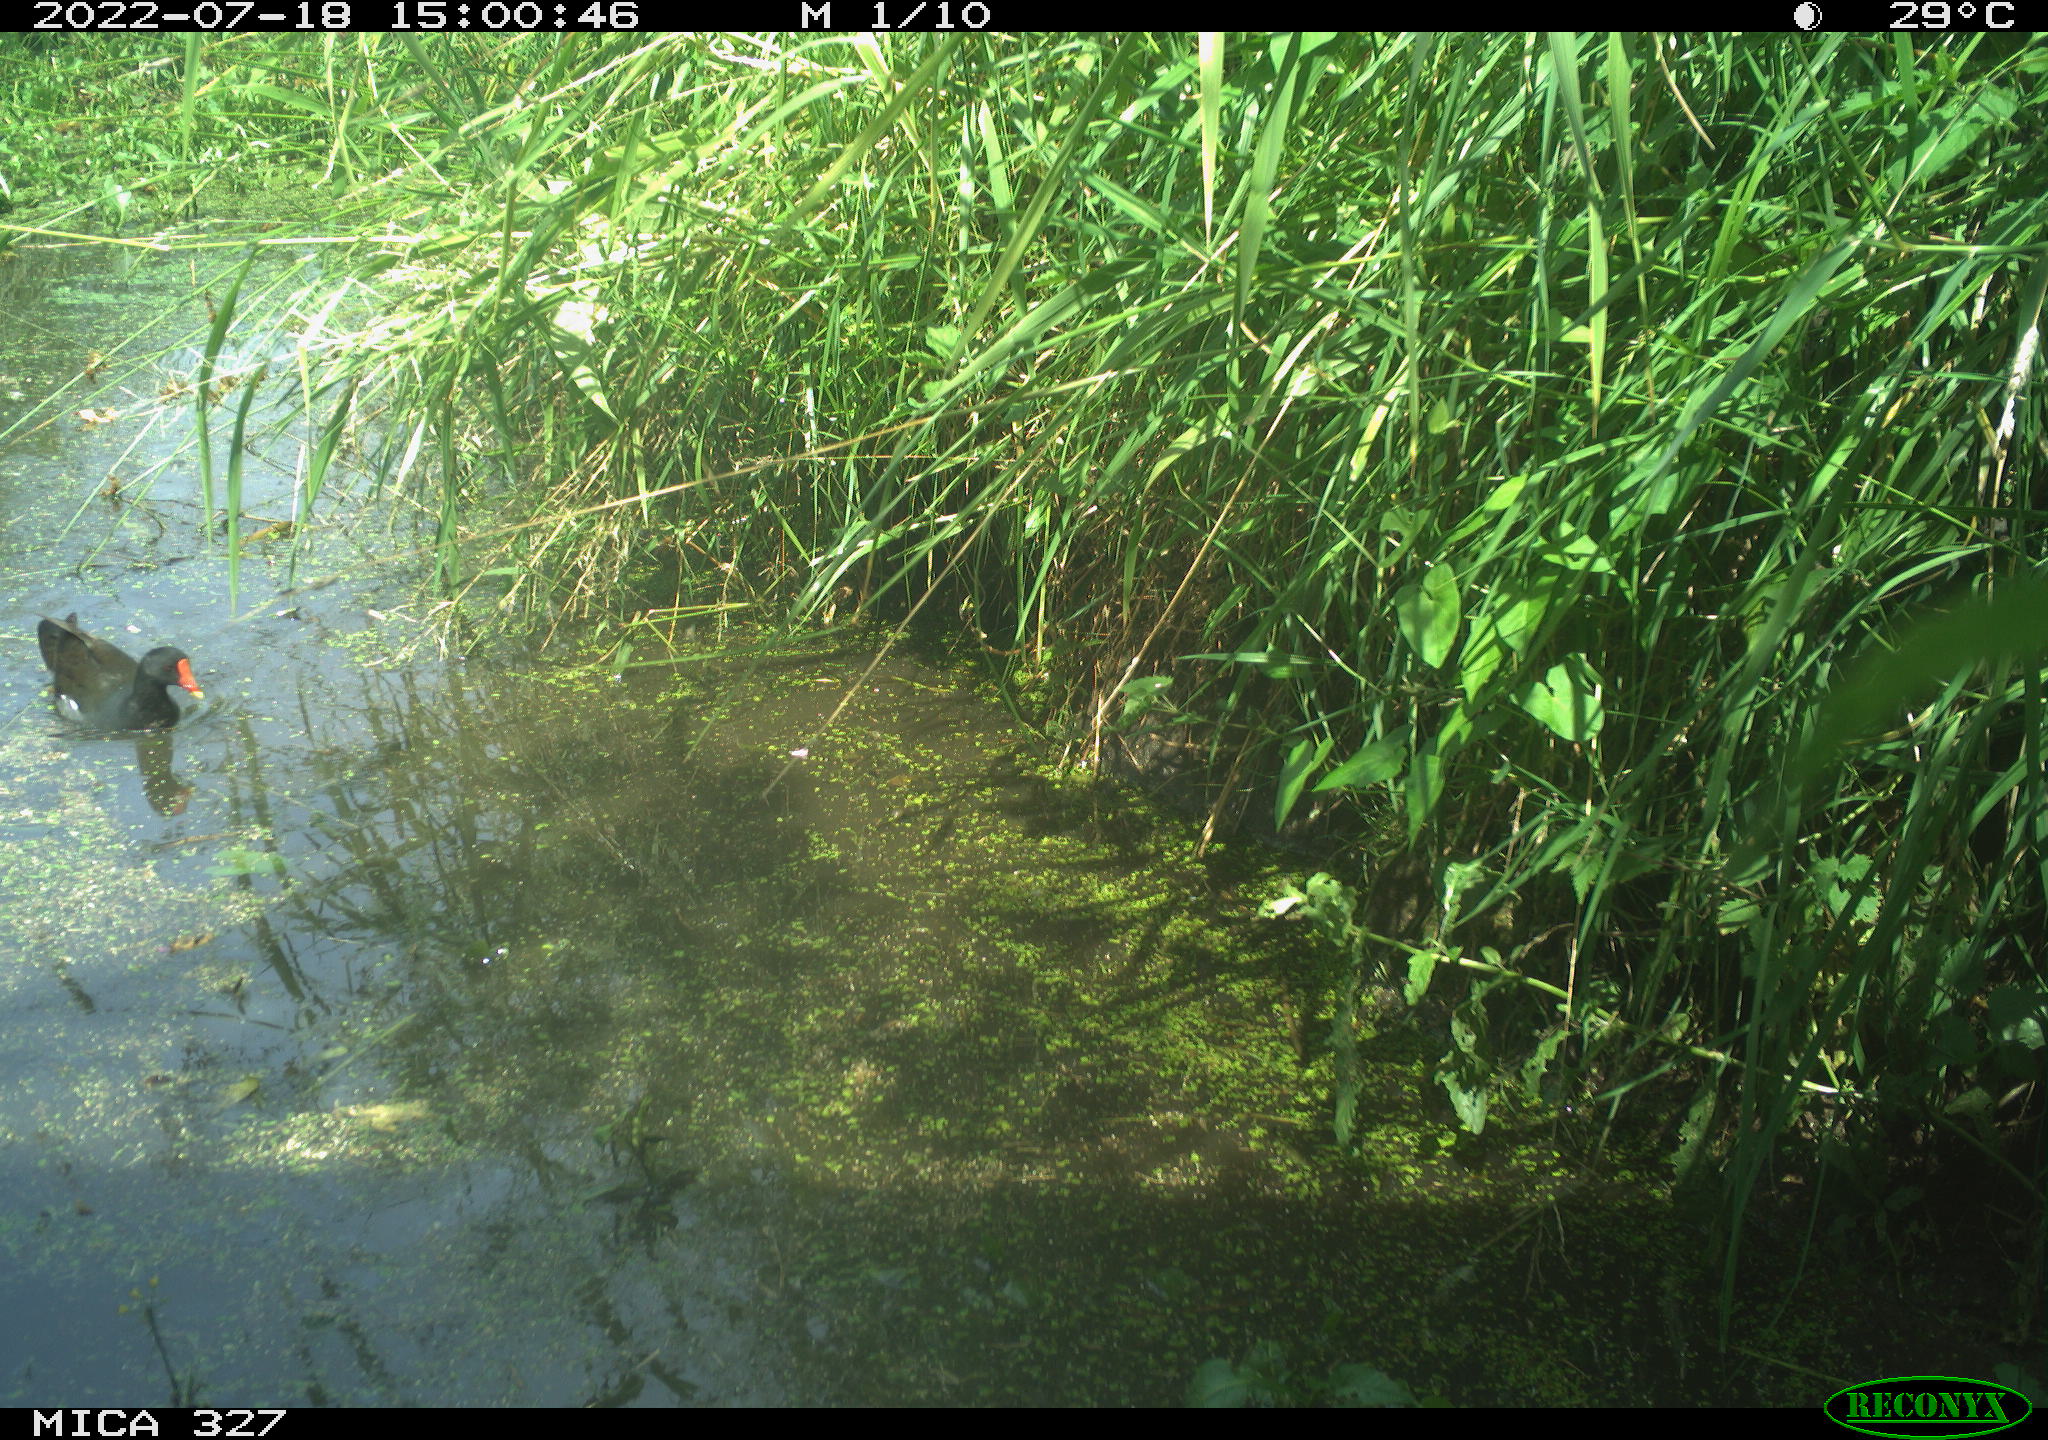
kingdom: Animalia
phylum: Chordata
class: Aves
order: Gruiformes
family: Rallidae
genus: Gallinula
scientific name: Gallinula chloropus
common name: Common moorhen
